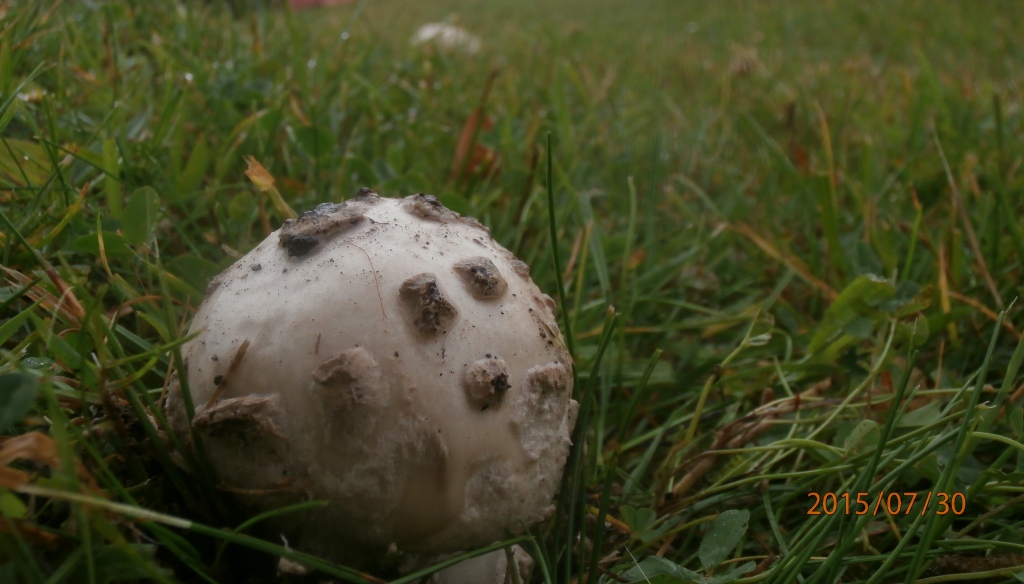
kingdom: Fungi
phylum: Basidiomycota
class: Agaricomycetes
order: Agaricales
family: Amanitaceae
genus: Amanita
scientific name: Amanita
